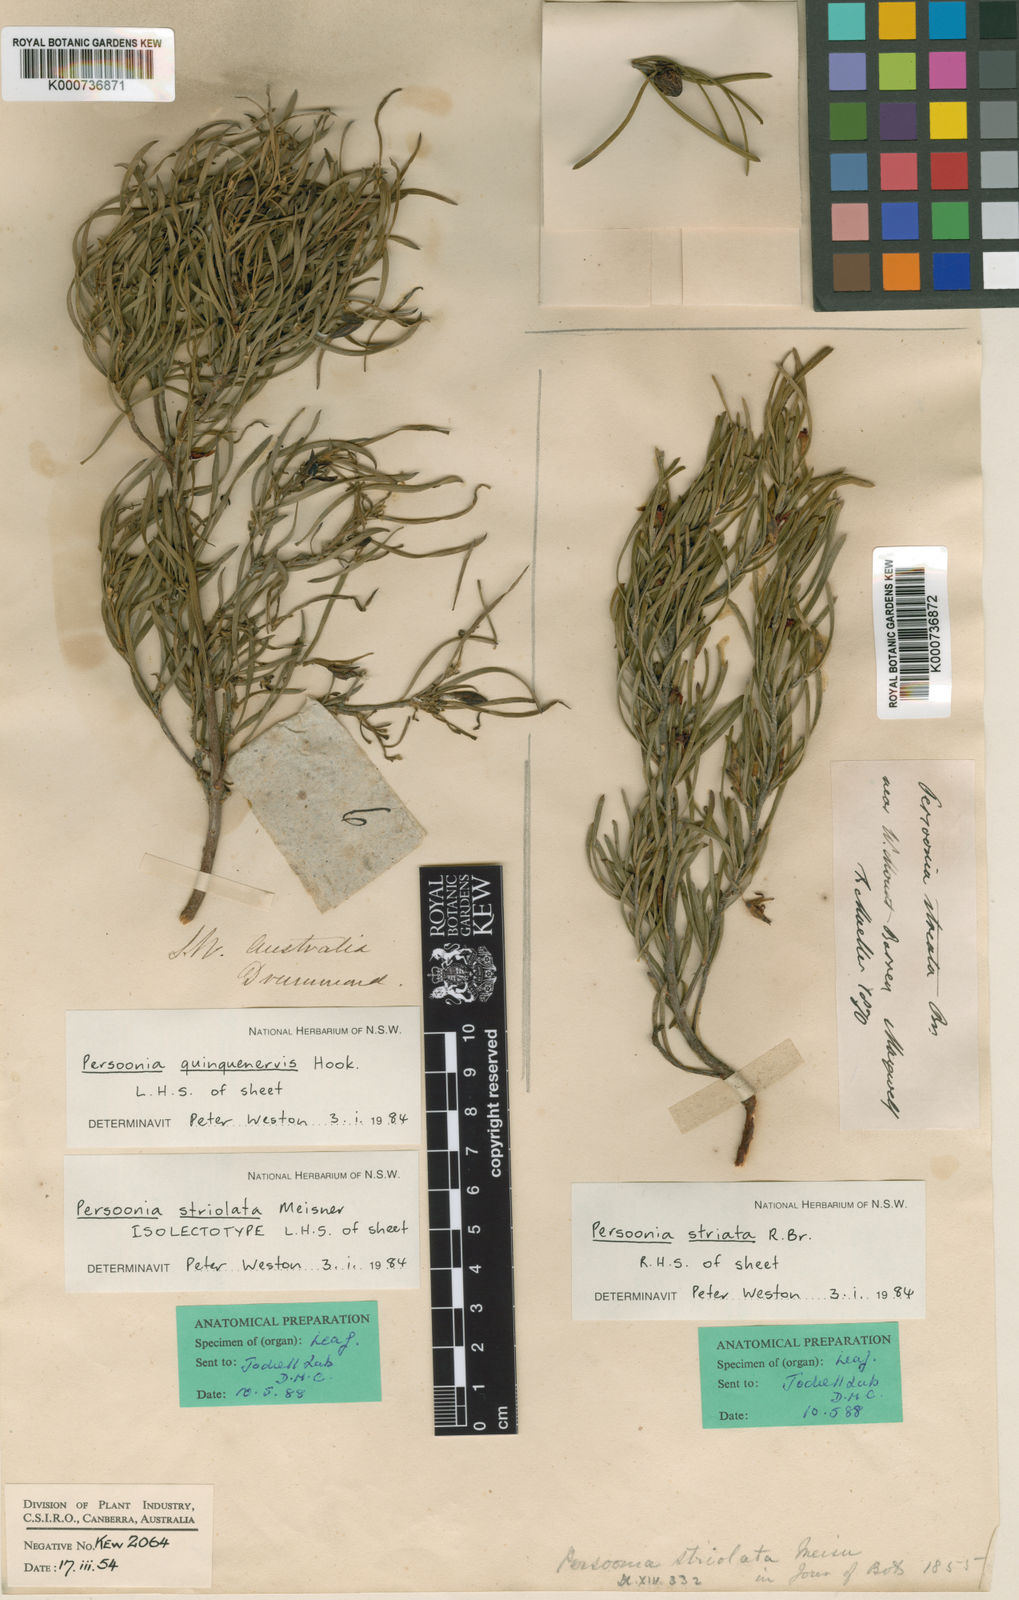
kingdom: Plantae
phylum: Tracheophyta
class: Magnoliopsida
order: Proteales
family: Proteaceae
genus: Persoonia
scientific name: Persoonia quinquenervis
